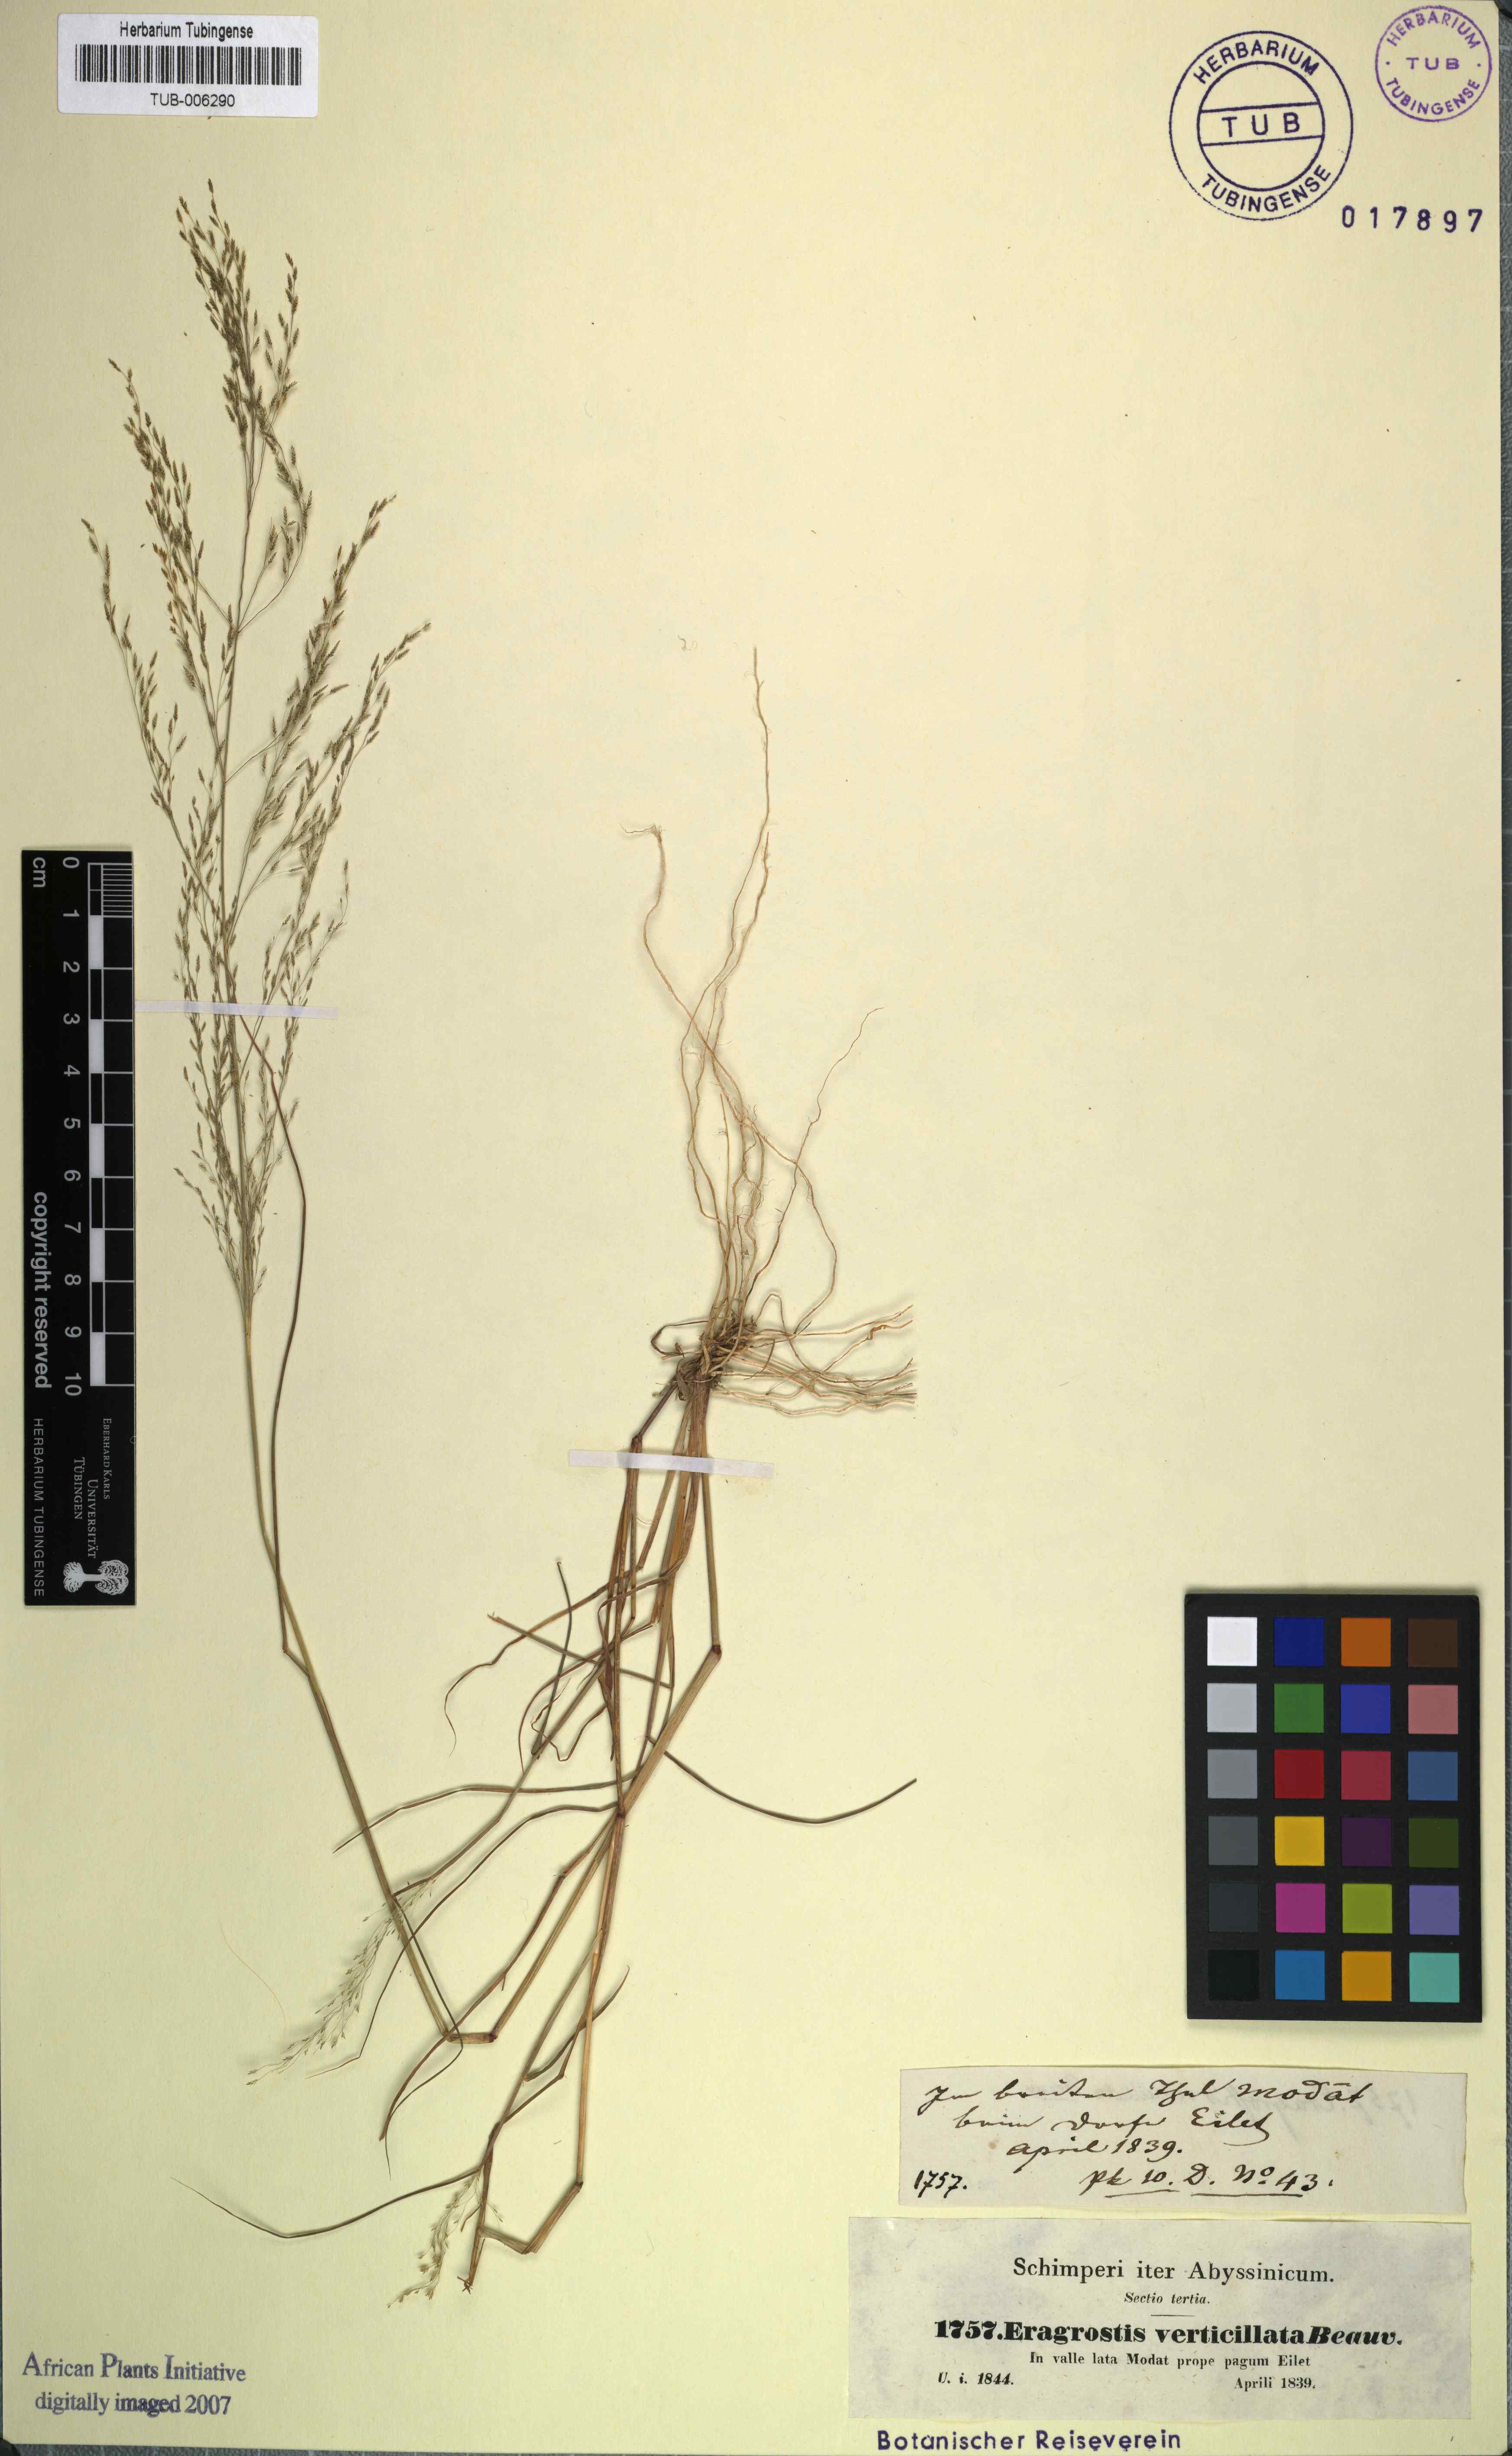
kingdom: Plantae
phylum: Tracheophyta
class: Liliopsida
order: Poales
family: Poaceae
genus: Eragrostis
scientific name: Eragrostis pilosa
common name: Indian lovegrass
